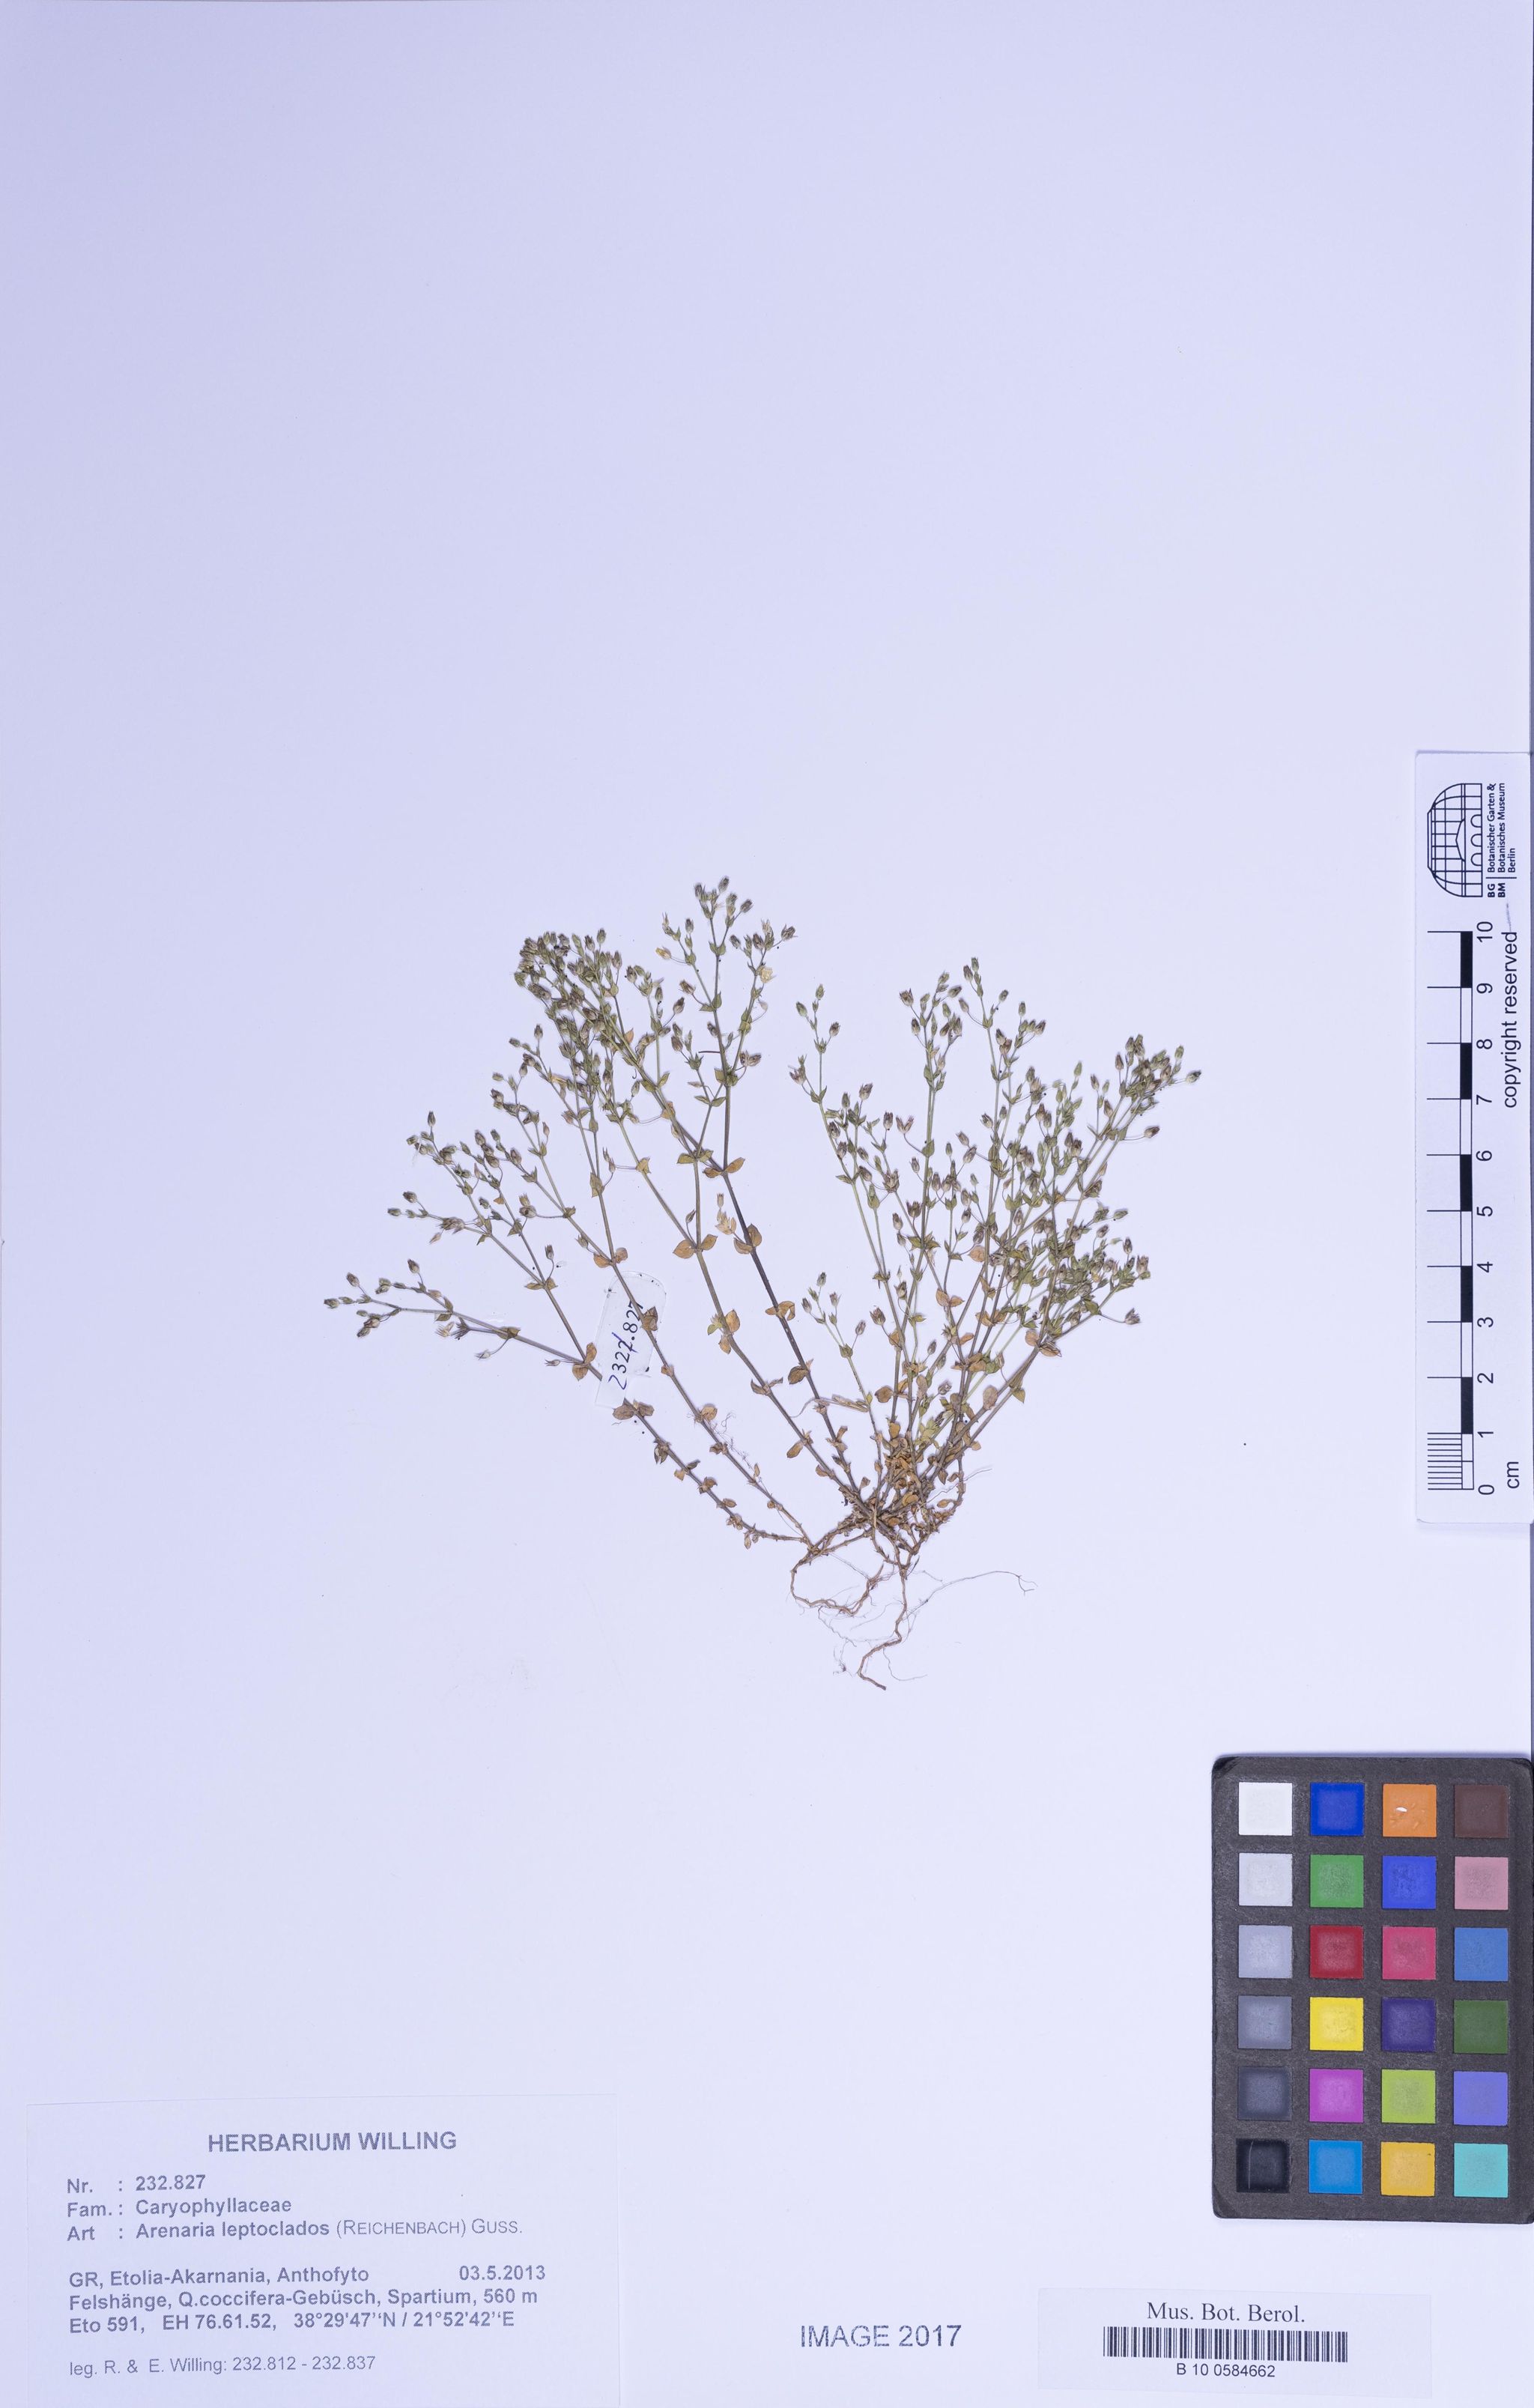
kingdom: Plantae
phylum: Tracheophyta
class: Magnoliopsida
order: Caryophyllales
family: Caryophyllaceae
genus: Arenaria
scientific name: Arenaria leptoclados
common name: Thyme-leaved sandwort
